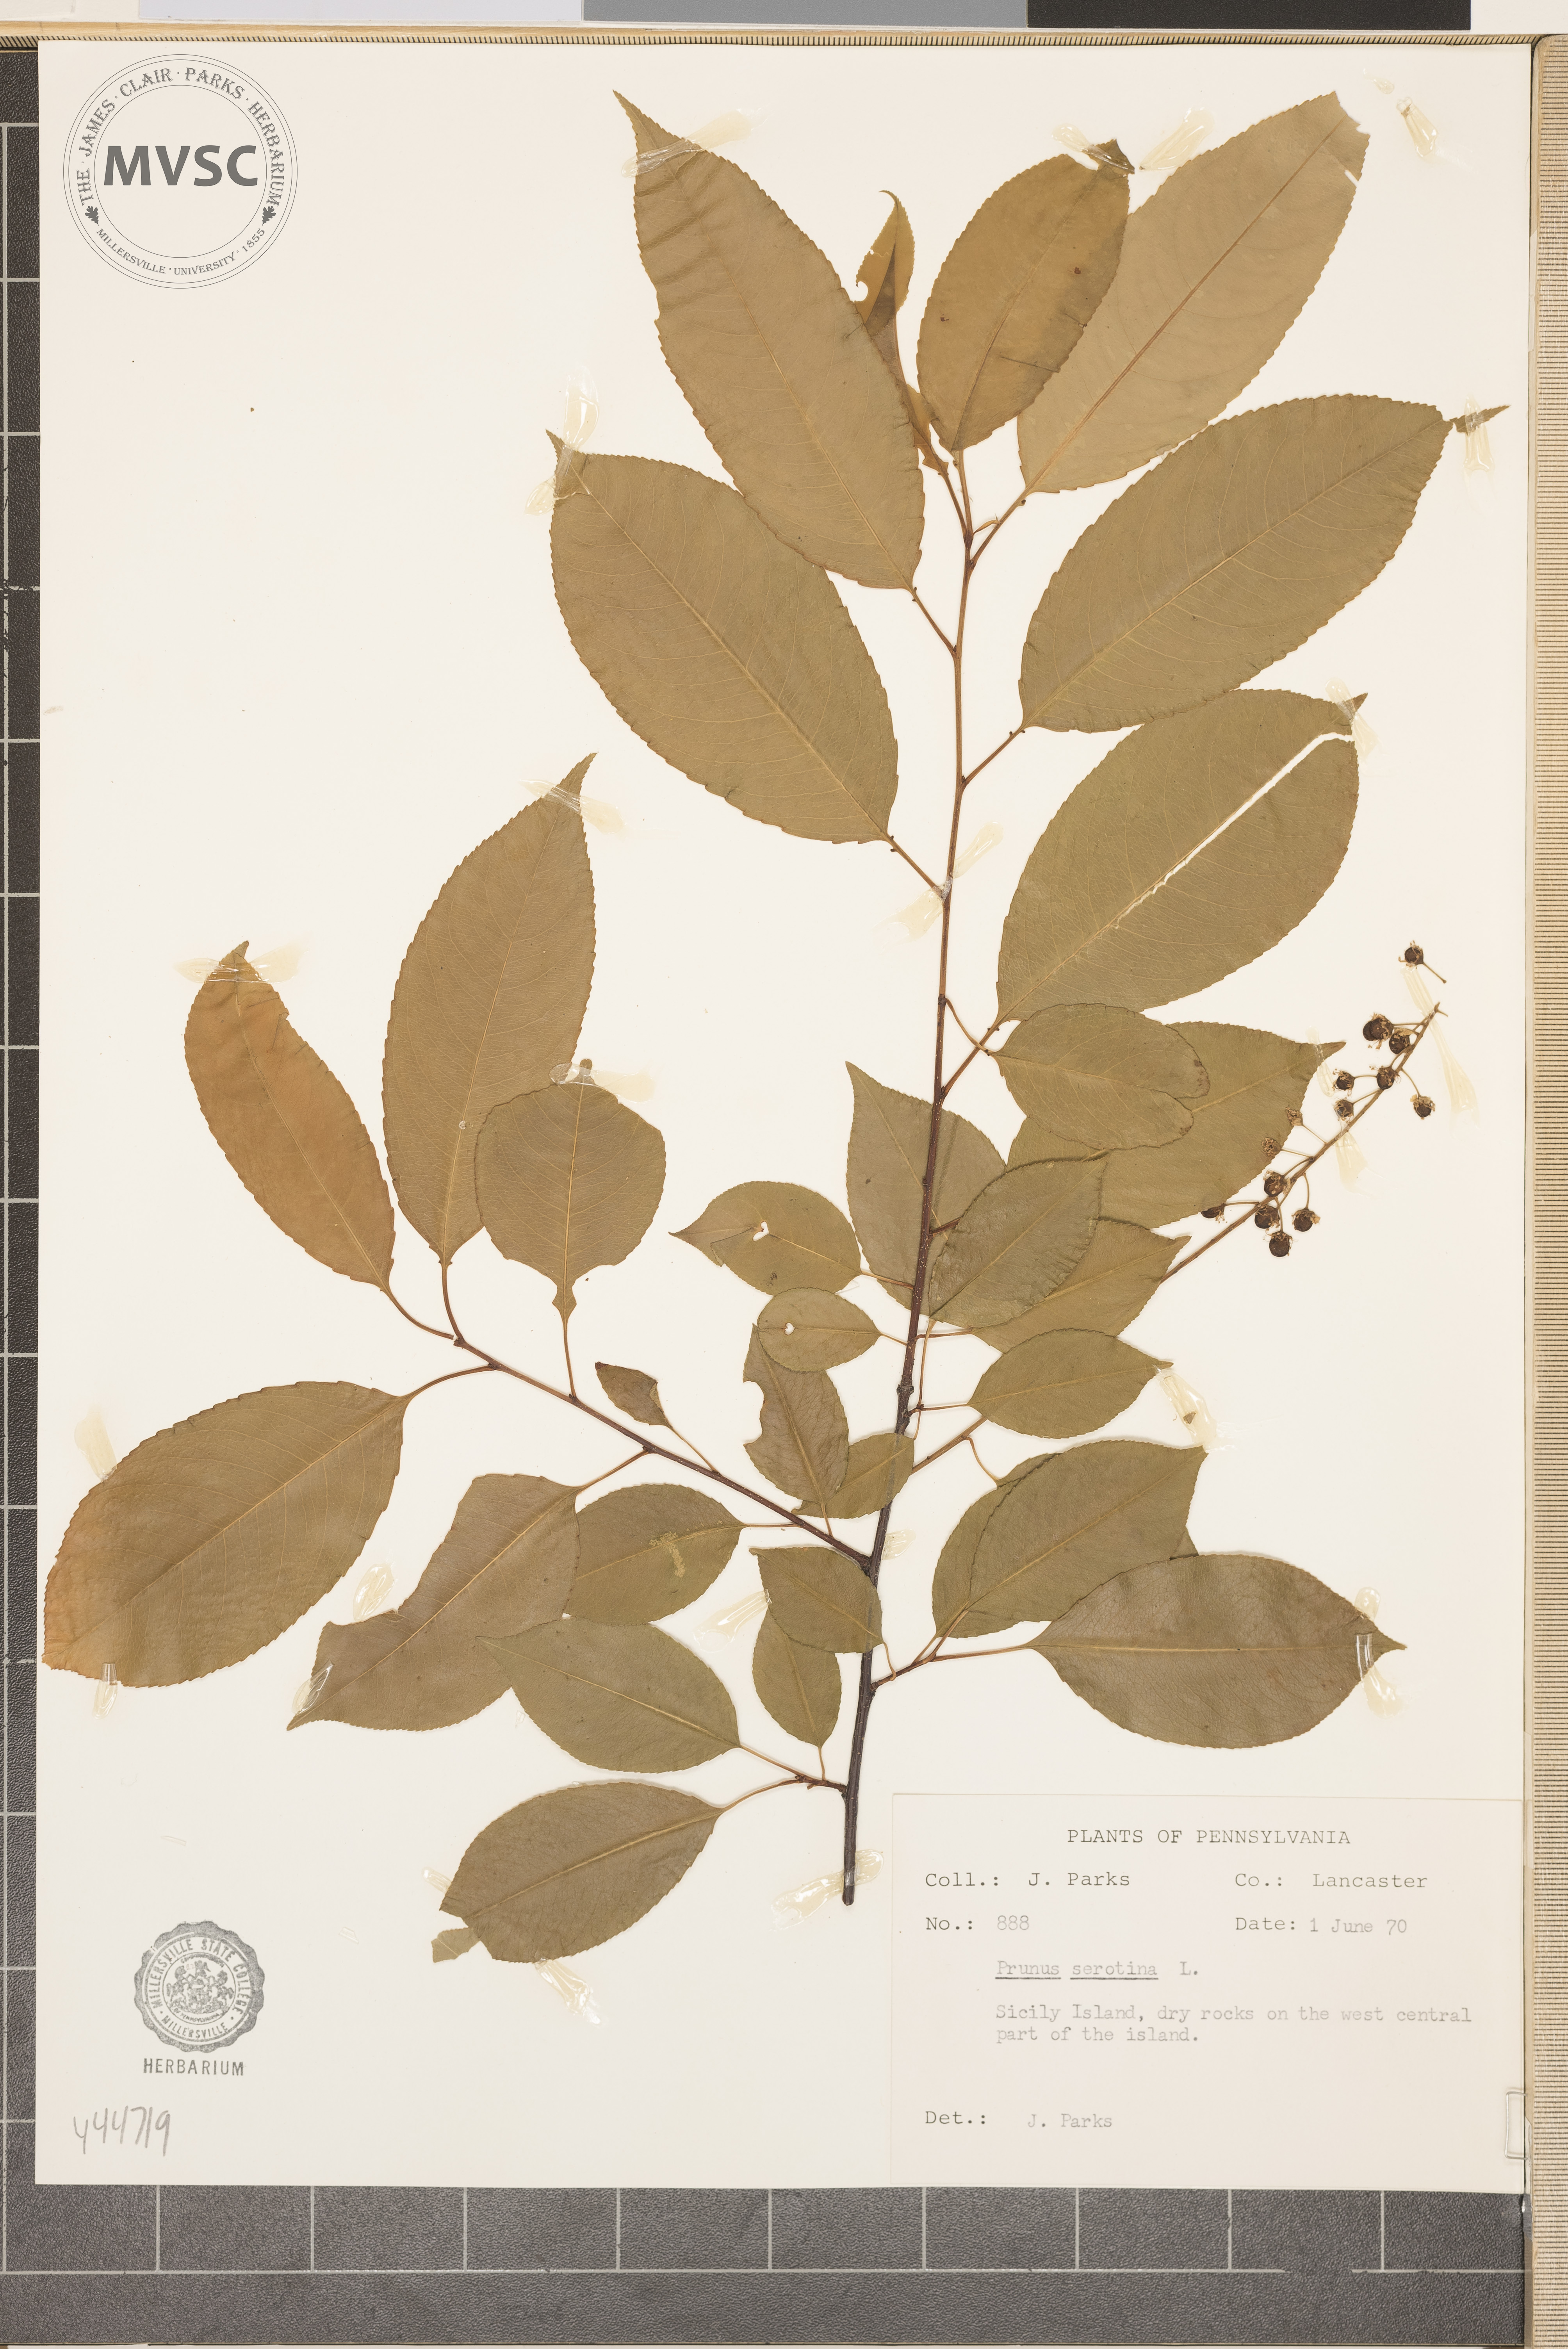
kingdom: Plantae
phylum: Tracheophyta
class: Magnoliopsida
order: Rosales
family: Rosaceae
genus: Prunus
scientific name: Prunus serotina
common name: Black cherry
